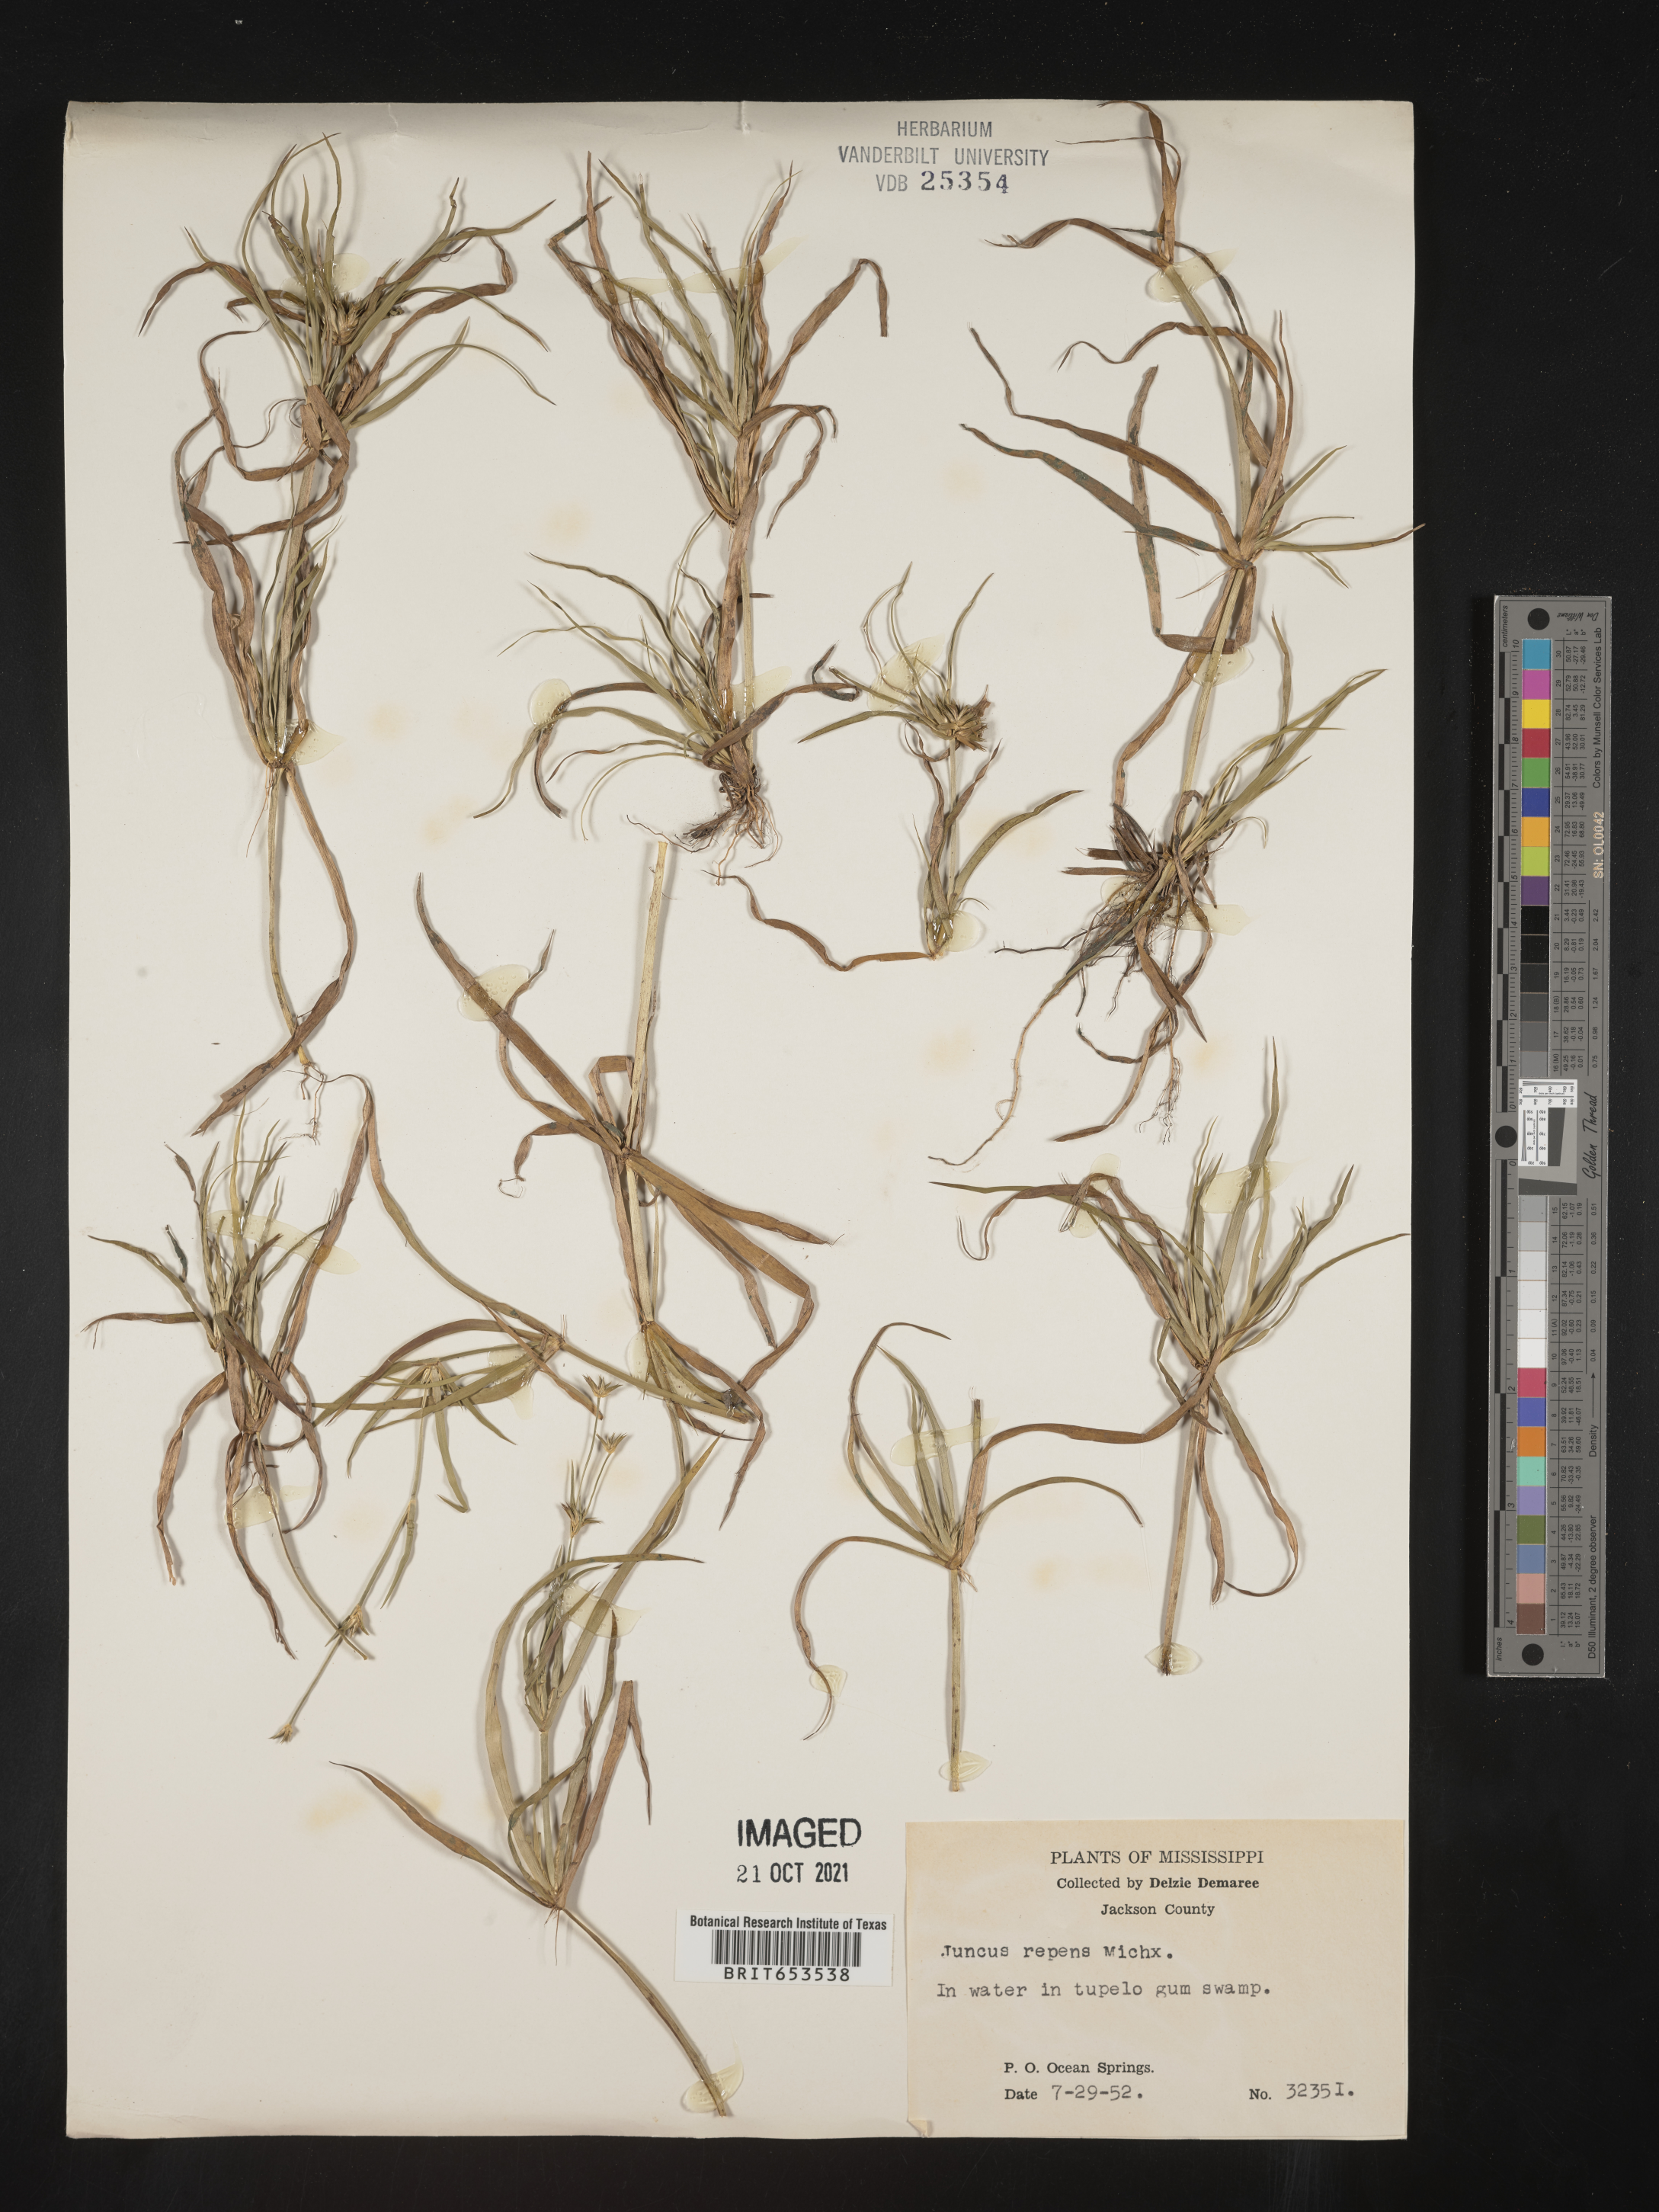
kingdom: Plantae
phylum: Tracheophyta
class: Liliopsida
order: Poales
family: Juncaceae
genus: Juncus
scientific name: Juncus repens
